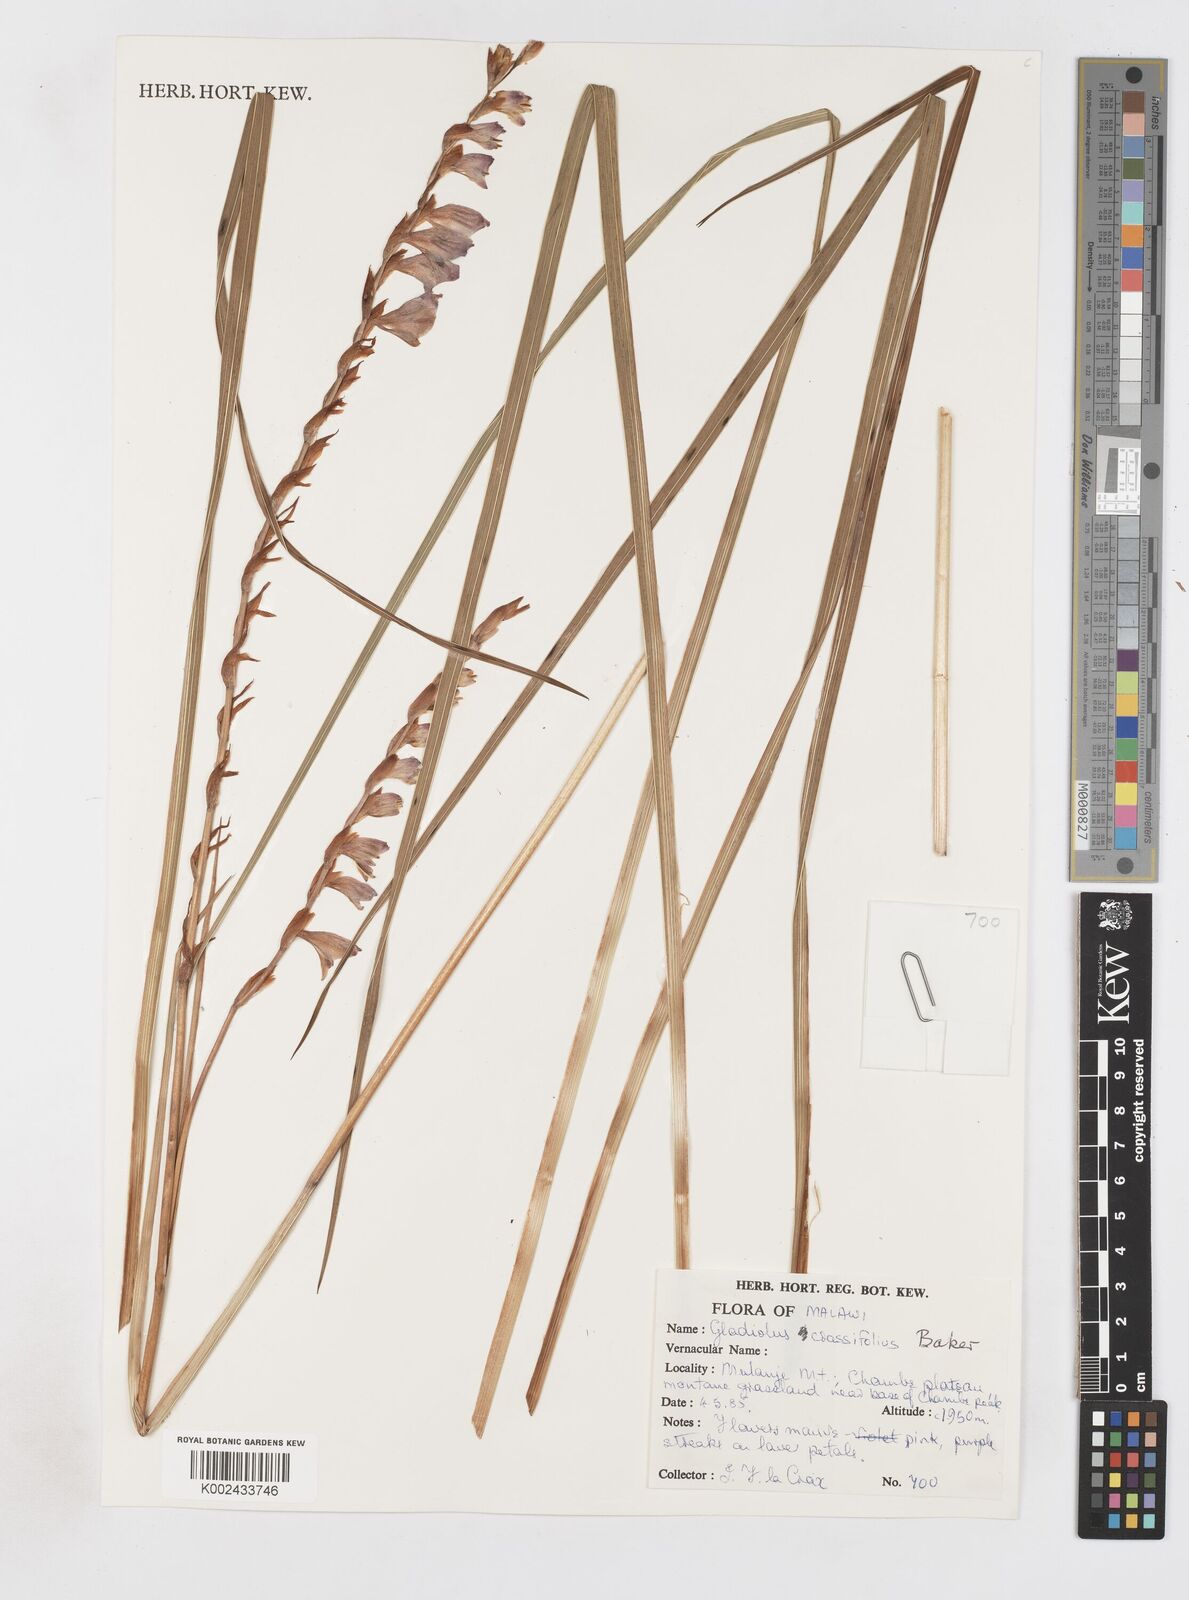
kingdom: Plantae
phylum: Tracheophyta
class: Liliopsida
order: Asparagales
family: Iridaceae
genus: Gladiolus
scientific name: Gladiolus crassifolius
